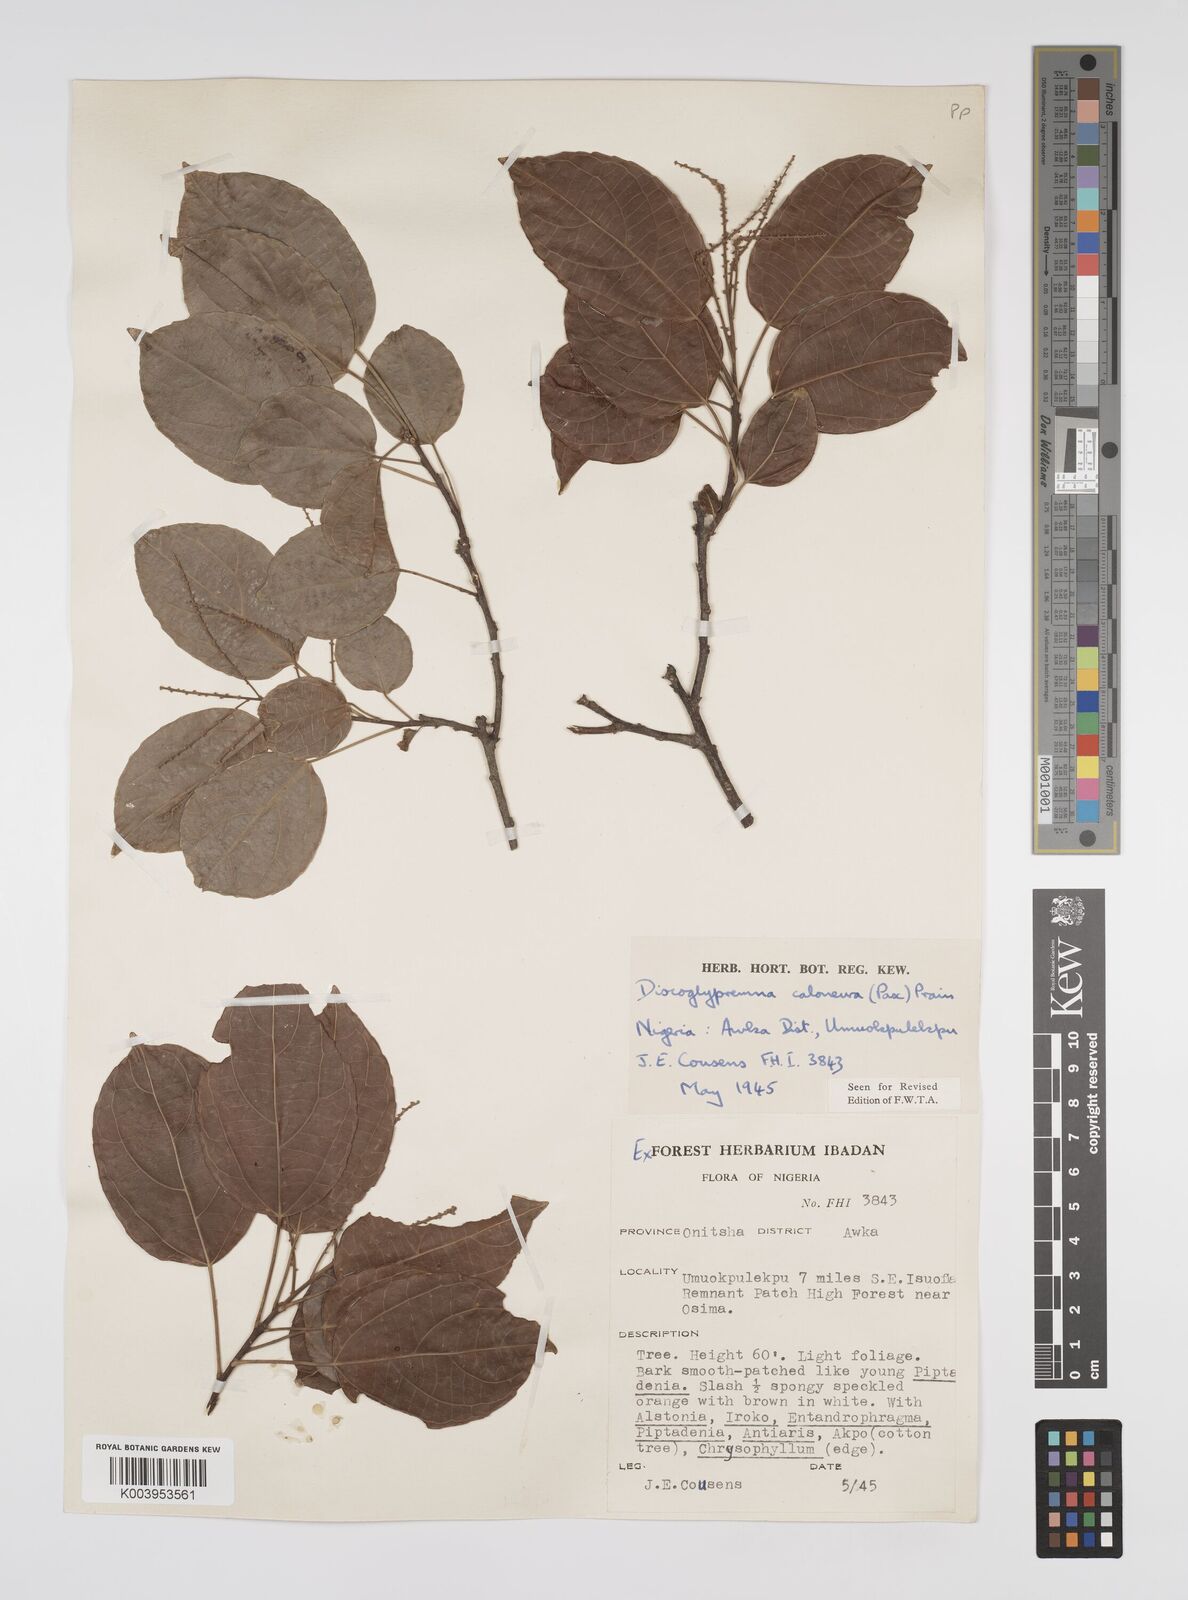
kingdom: Plantae
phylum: Tracheophyta
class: Magnoliopsida
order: Malpighiales
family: Euphorbiaceae
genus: Discoglypremna
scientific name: Discoglypremna caloneura
